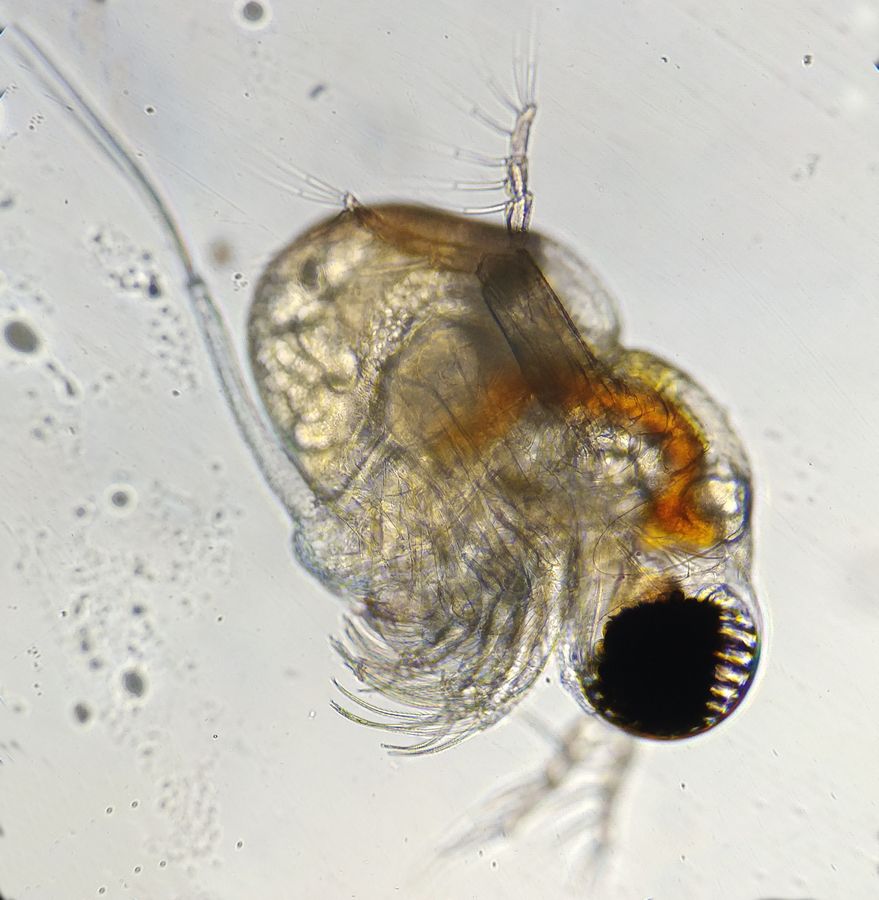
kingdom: Animalia
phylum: Arthropoda
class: Branchiopoda
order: Diplostraca
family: Polyphemidae
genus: Polyphemus
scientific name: Polyphemus pediculus
